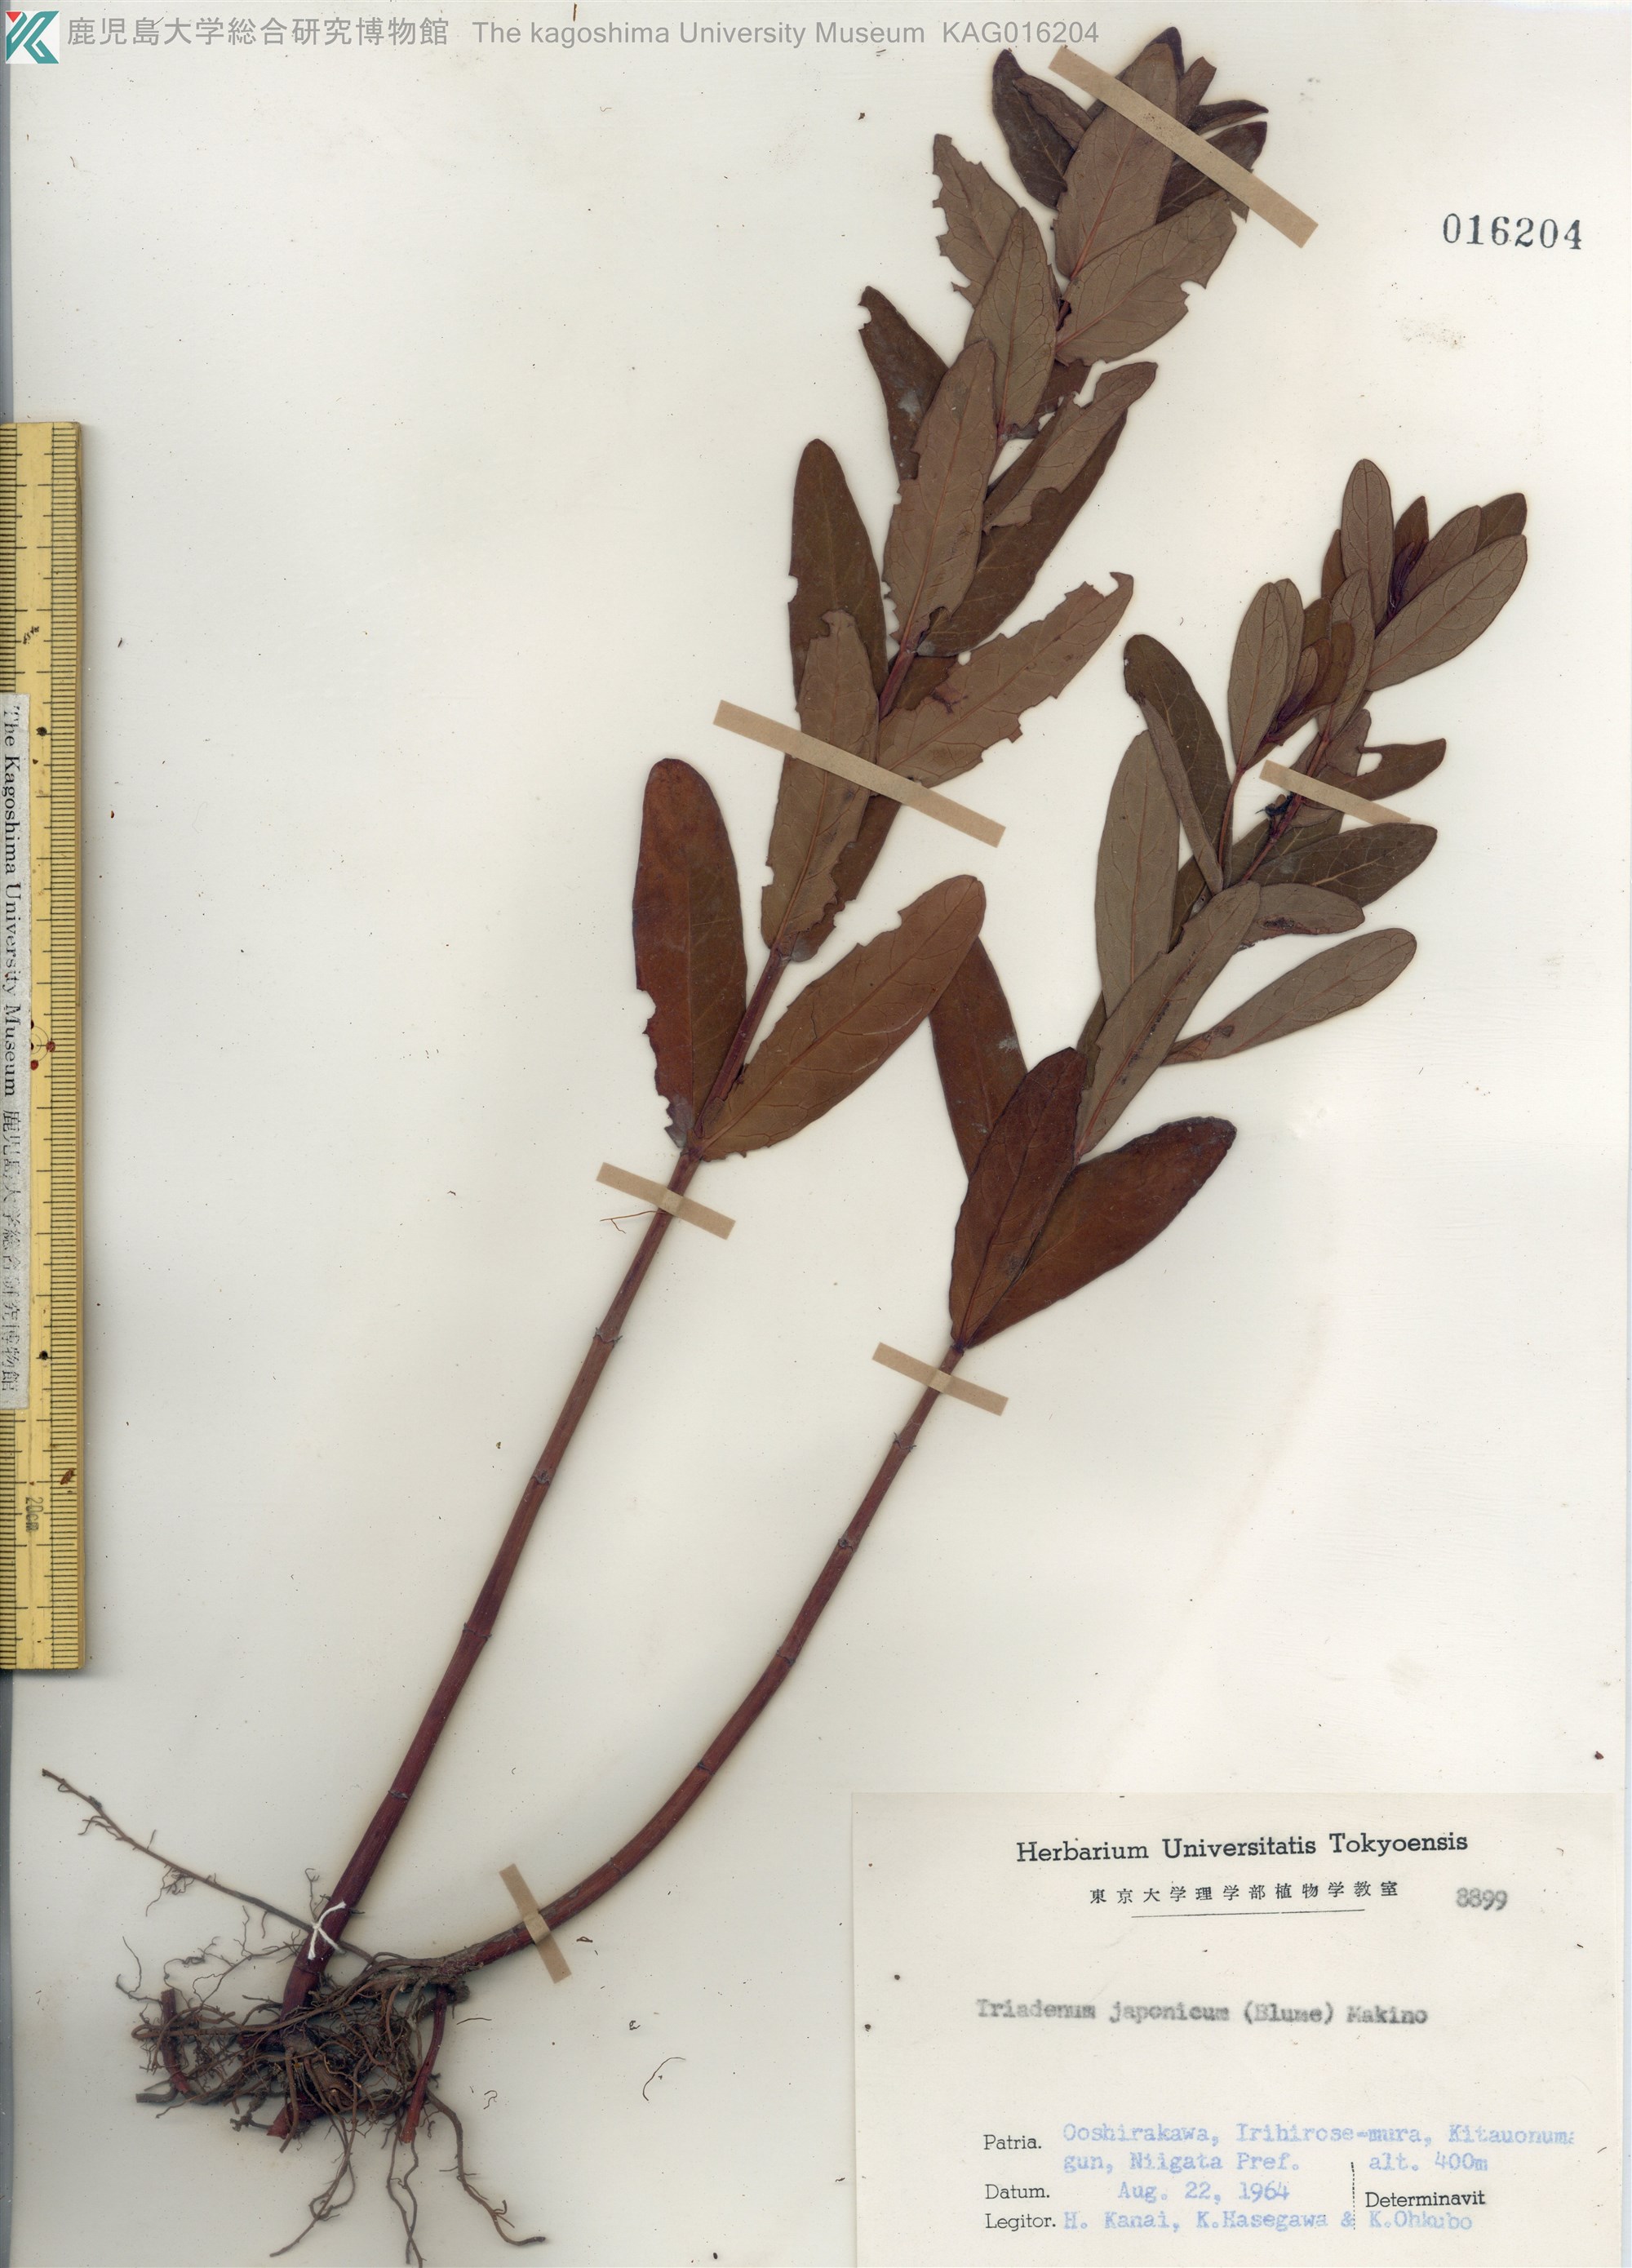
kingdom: Plantae
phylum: Tracheophyta
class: Magnoliopsida
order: Malpighiales
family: Hypericaceae
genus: Triadenum
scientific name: Triadenum japonicum
